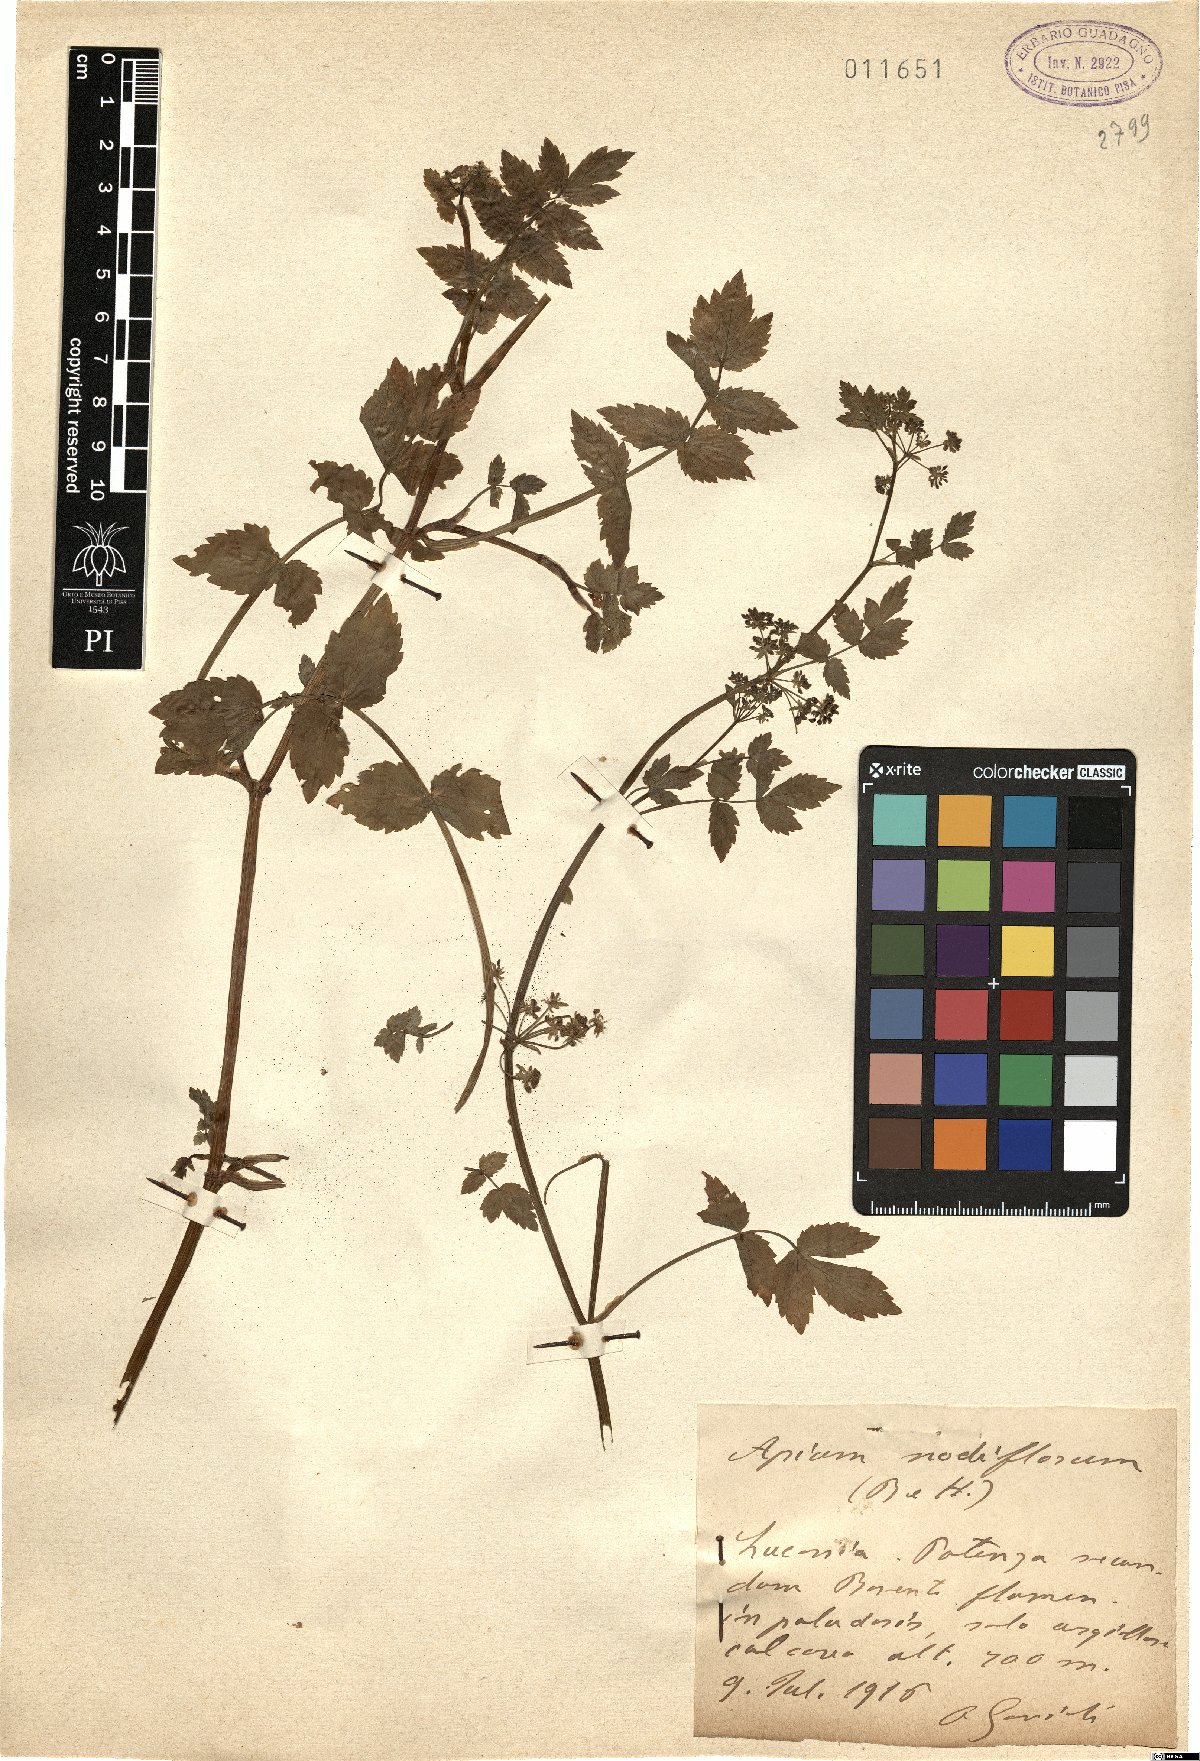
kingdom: Plantae
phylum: Tracheophyta
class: Magnoliopsida
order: Apiales
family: Apiaceae
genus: Helosciadium
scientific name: Helosciadium nodiflorum
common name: Fool's-watercress
